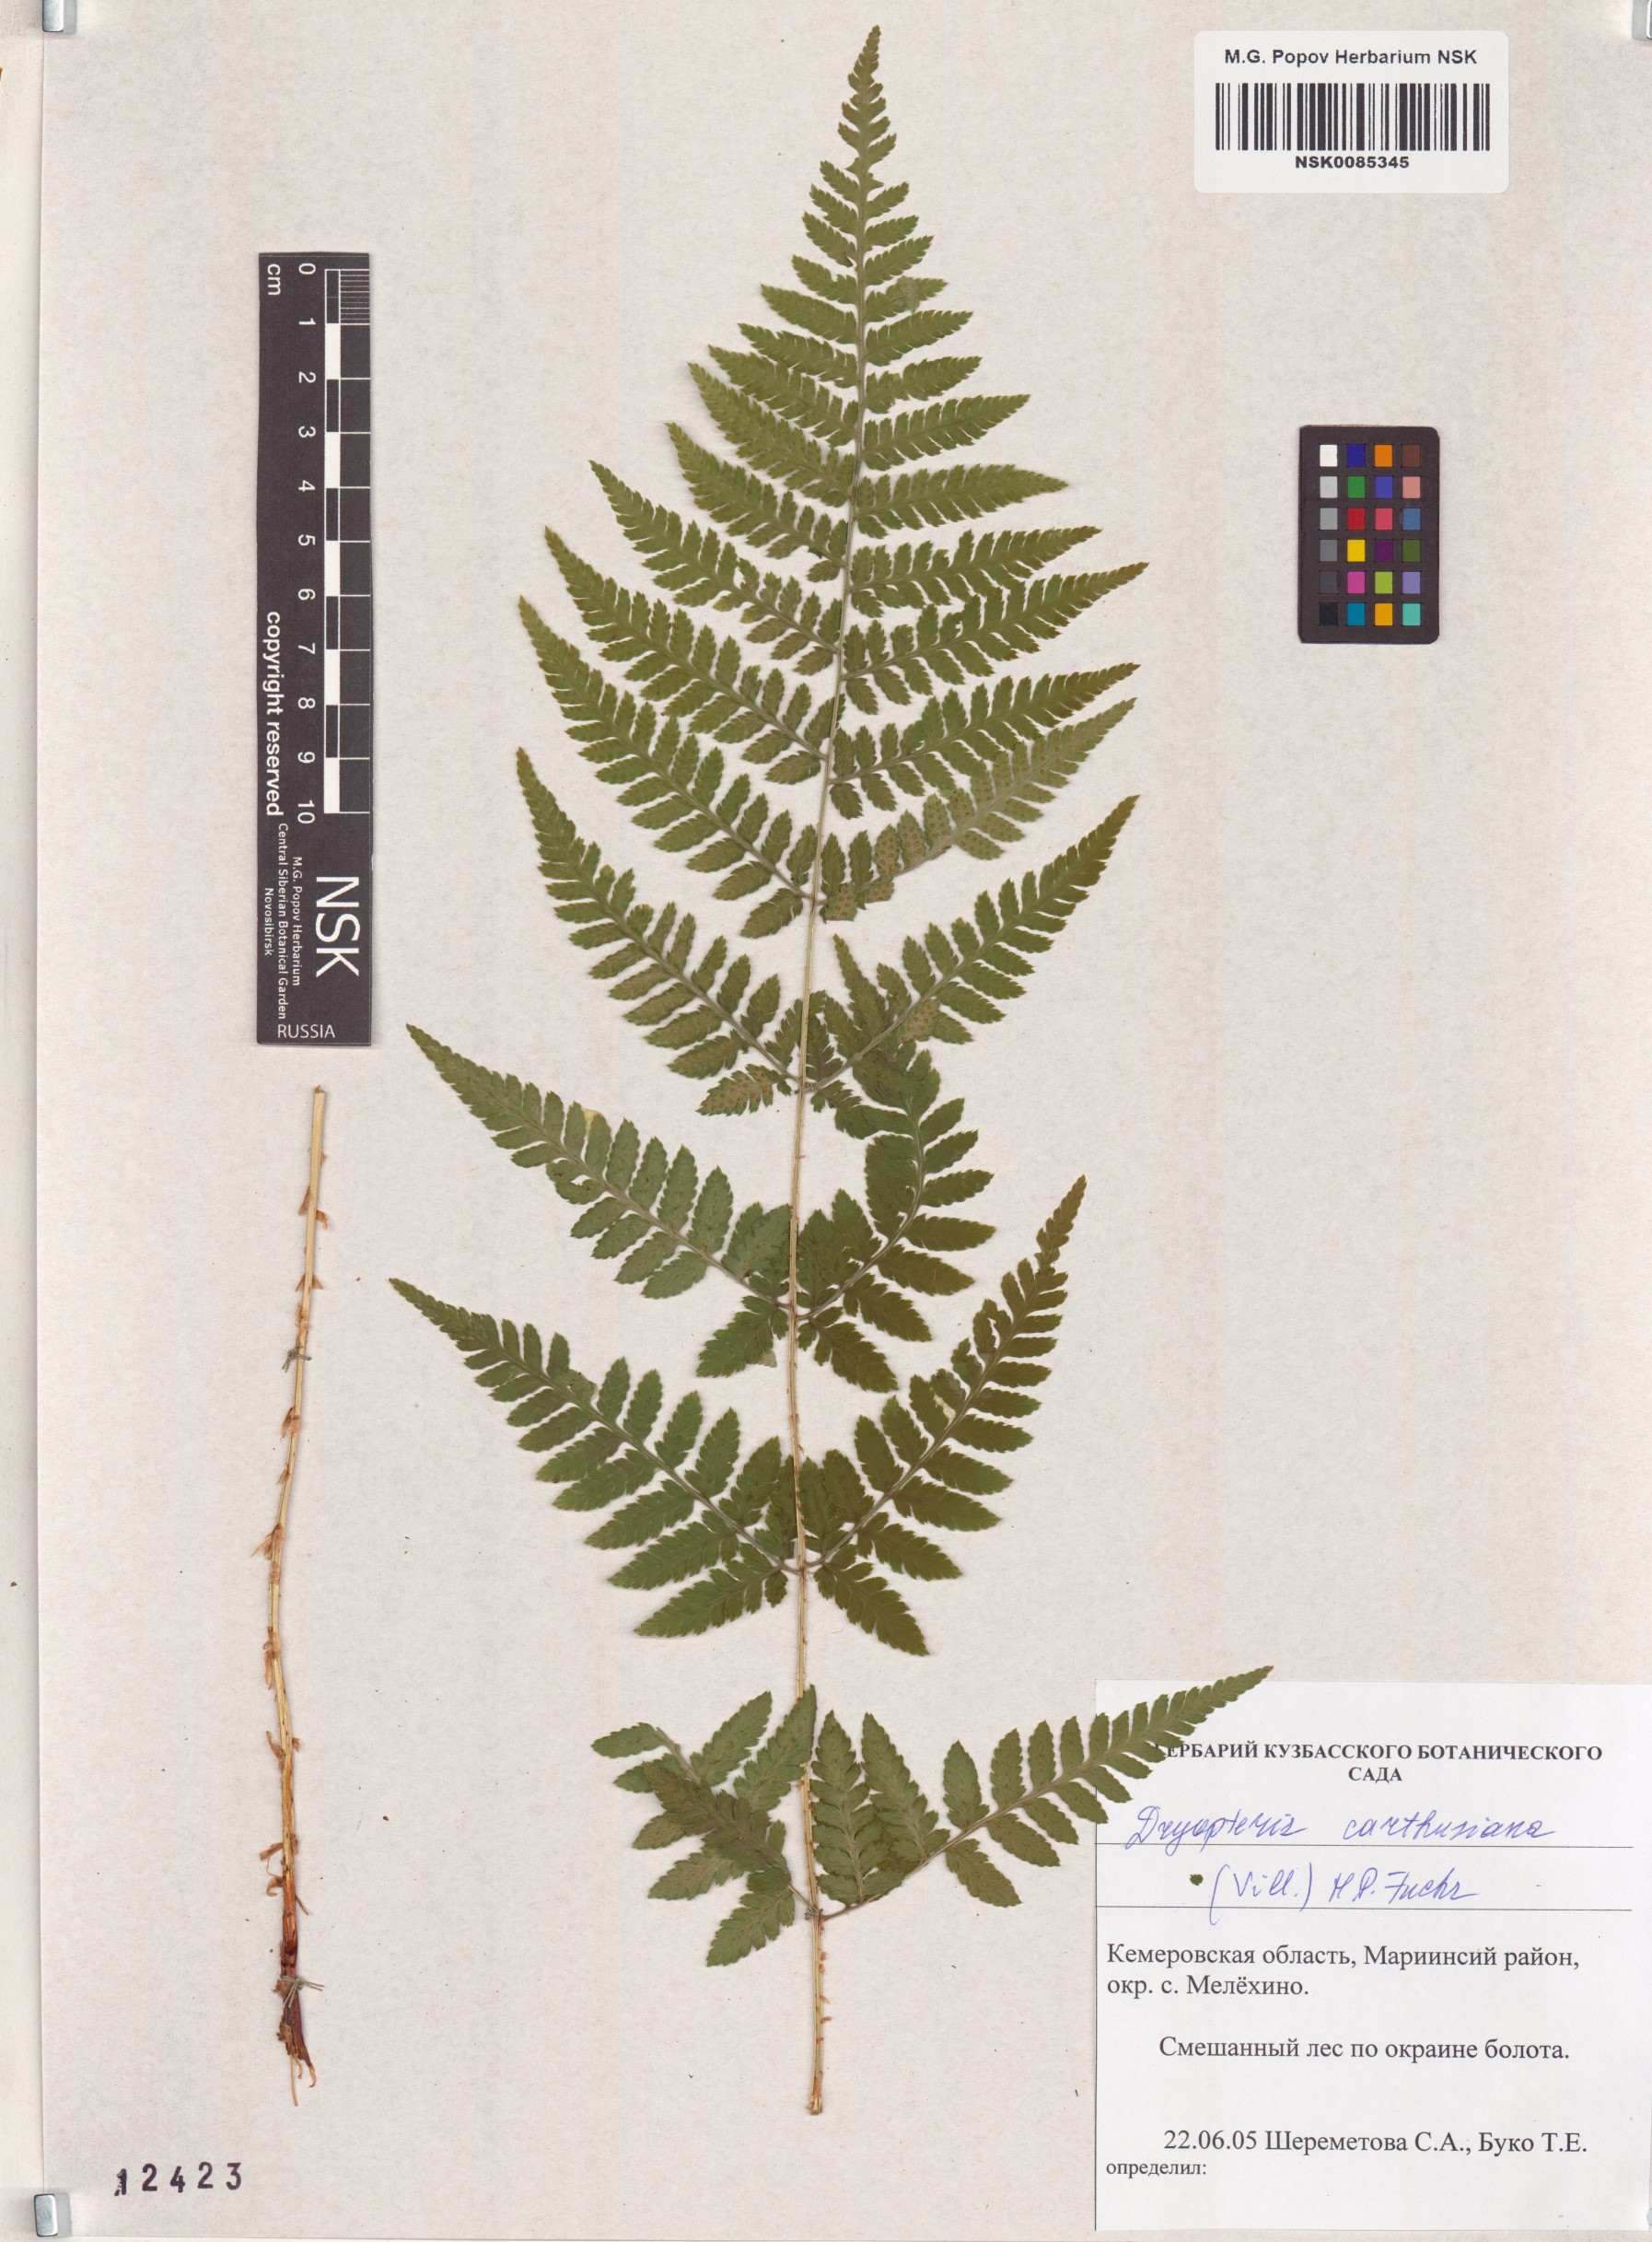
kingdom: Plantae
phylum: Tracheophyta
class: Polypodiopsida
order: Polypodiales
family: Dryopteridaceae
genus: Dryopteris
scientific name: Dryopteris carthusiana
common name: Narrow buckler-fern
